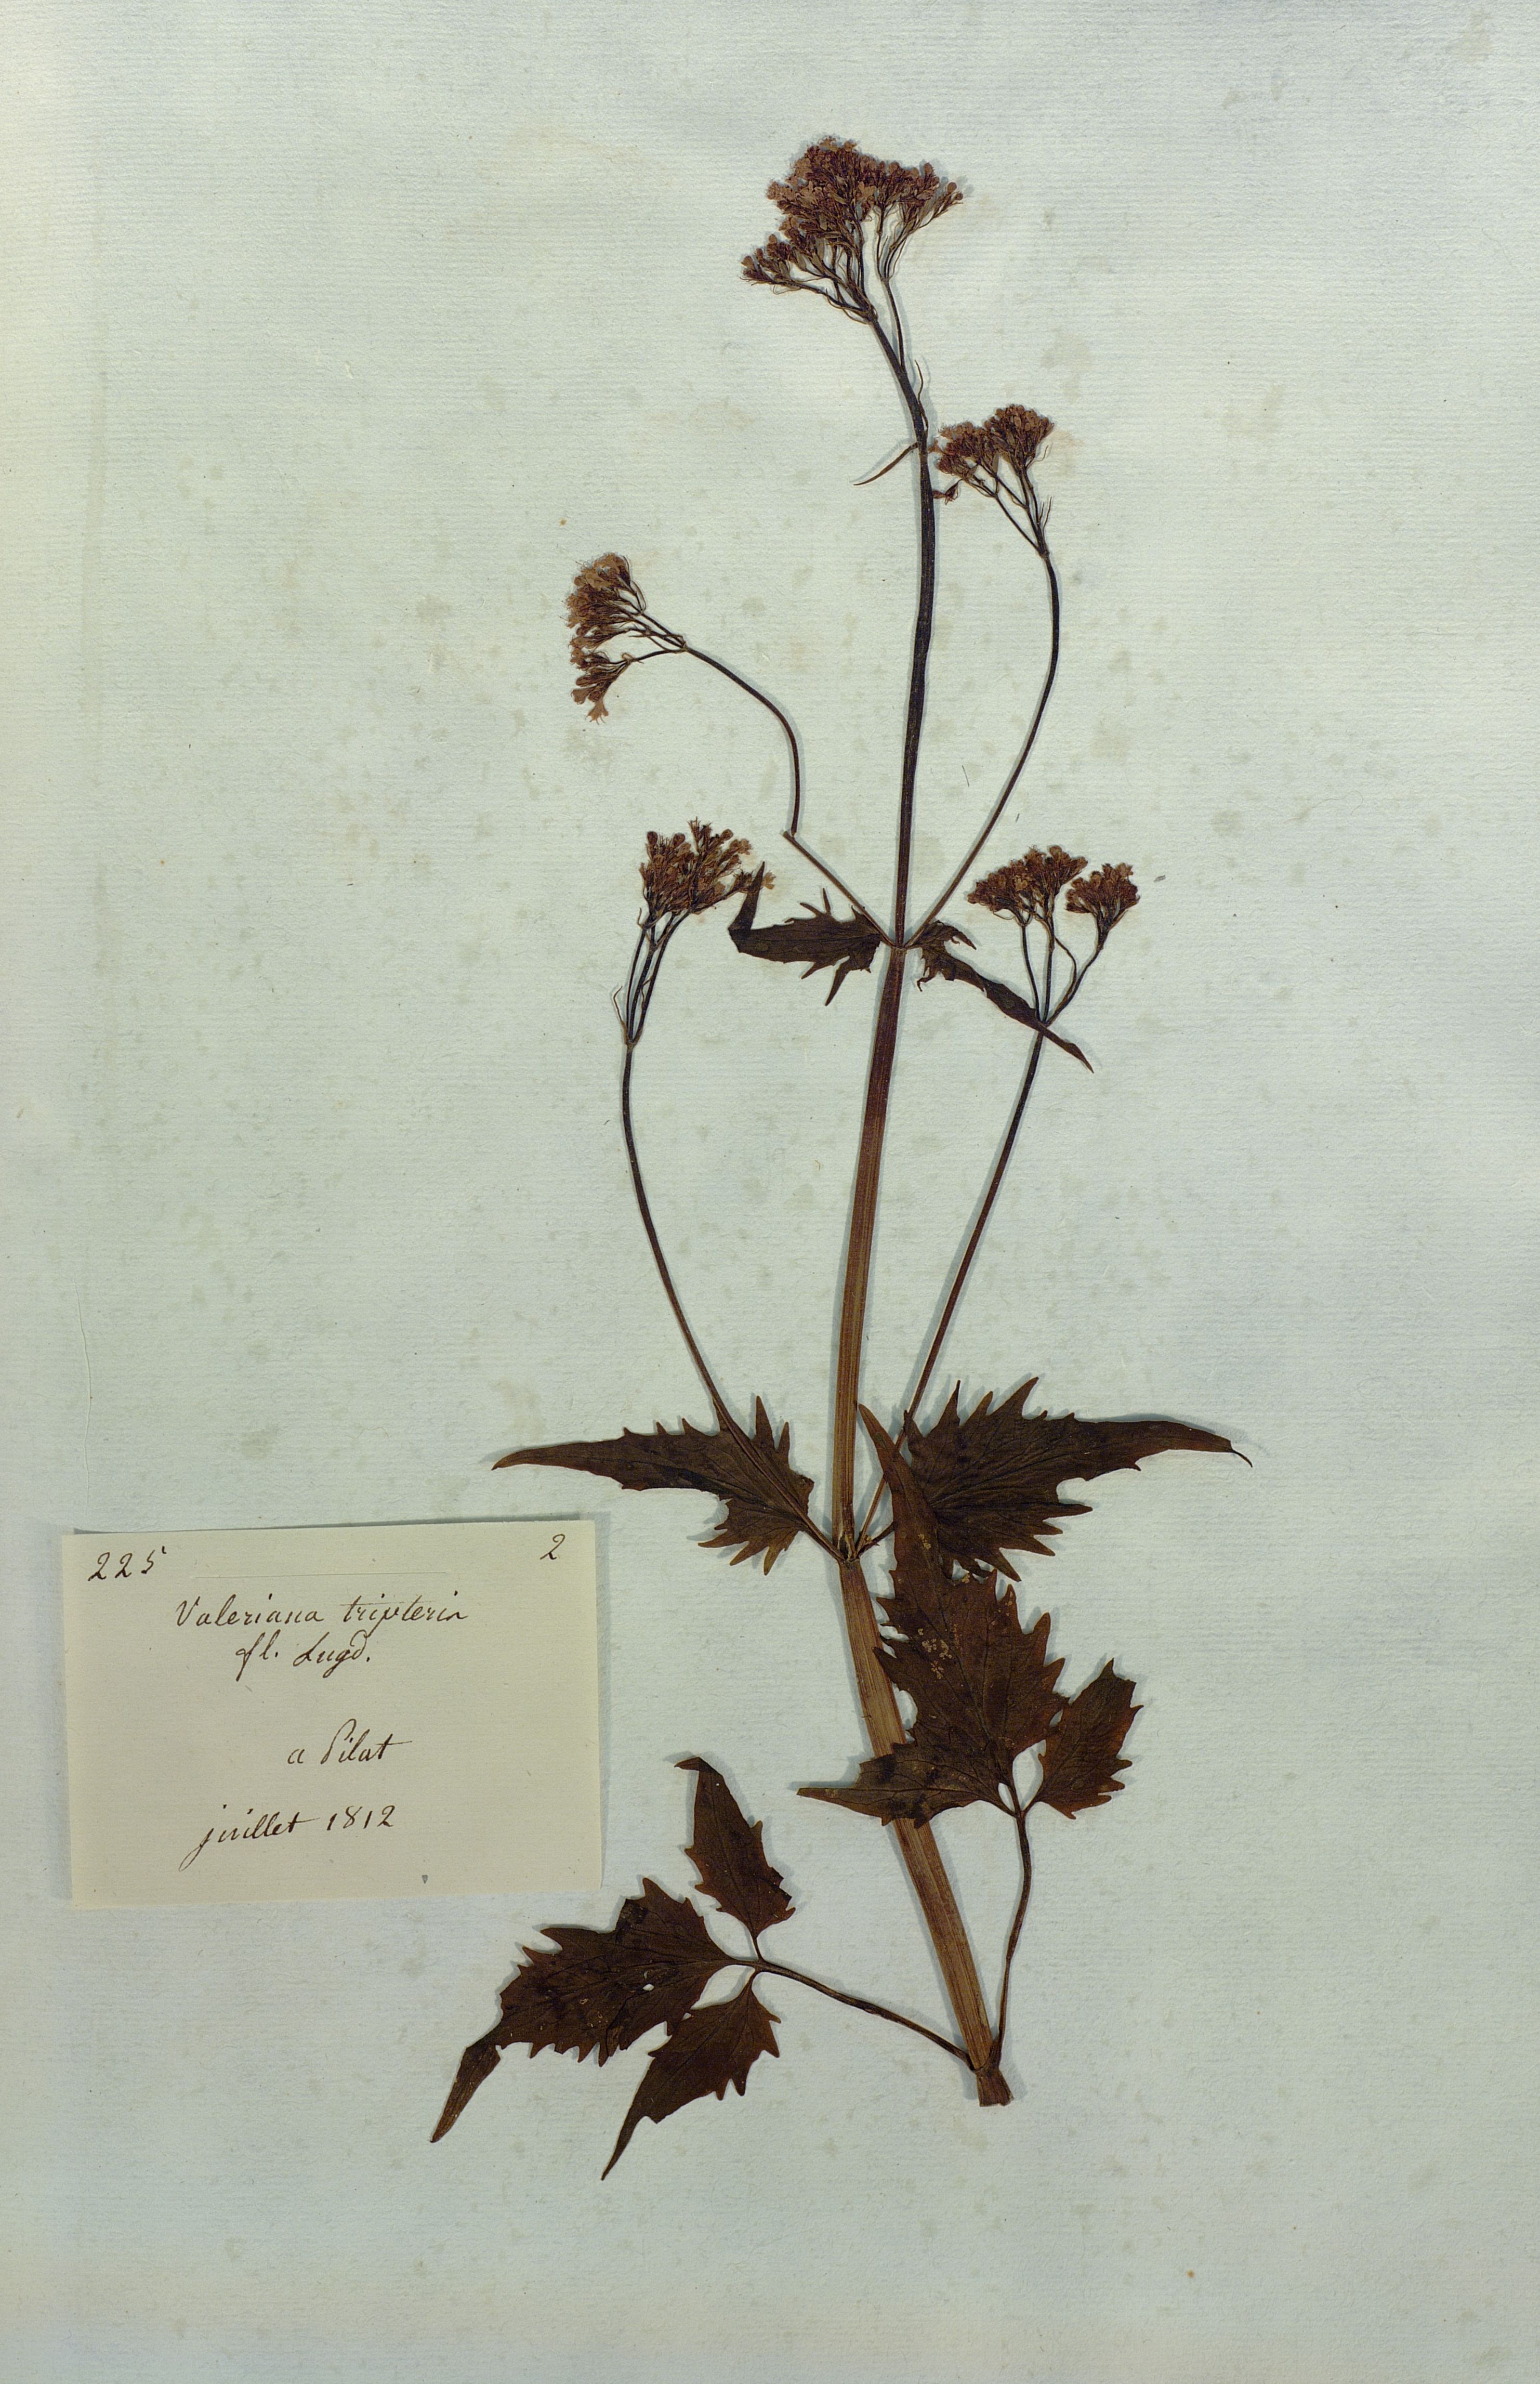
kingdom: Plantae
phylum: Tracheophyta
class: Magnoliopsida
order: Dipsacales
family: Caprifoliaceae
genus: Valeriana
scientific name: Valeriana tripteris
